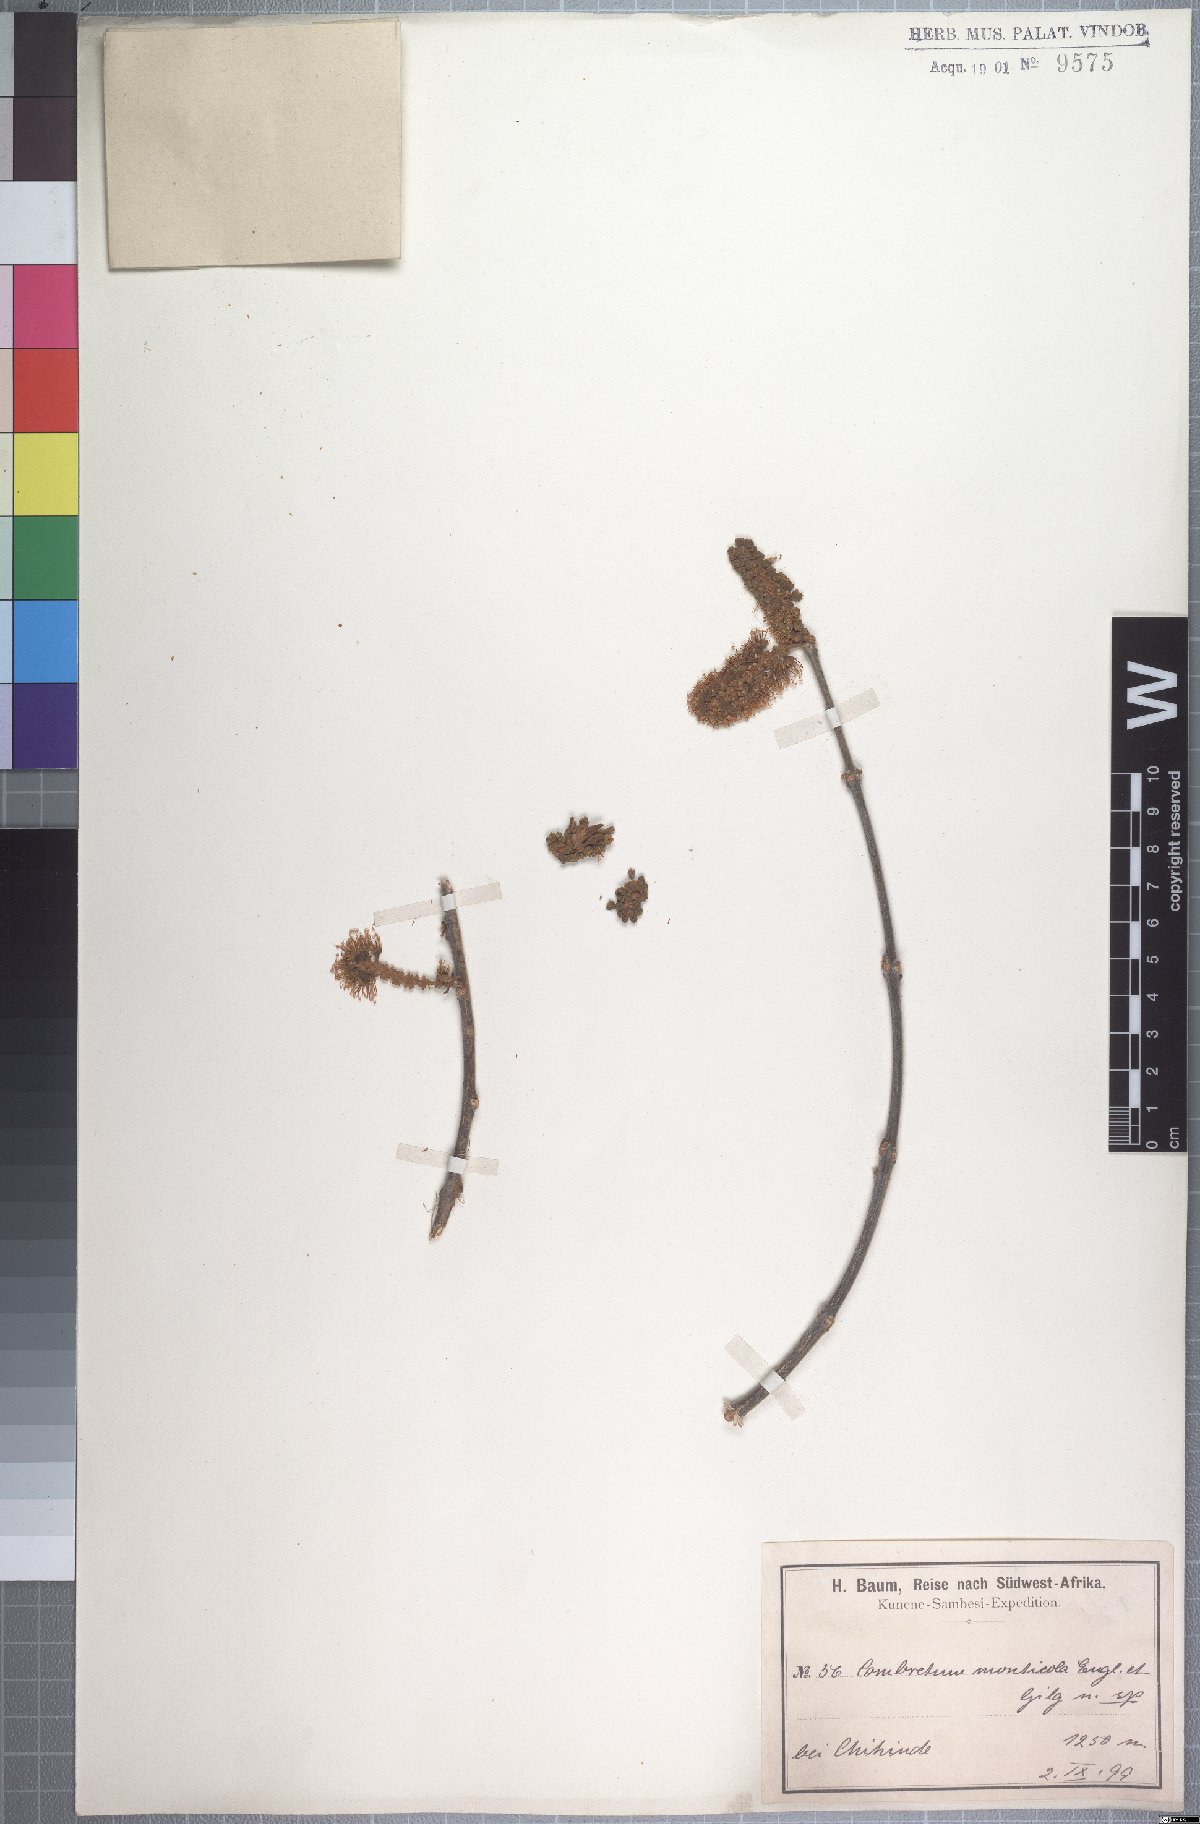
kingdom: Plantae
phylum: Tracheophyta
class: Magnoliopsida
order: Myrtales
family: Combretaceae
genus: Combretum
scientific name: Combretum collinum
